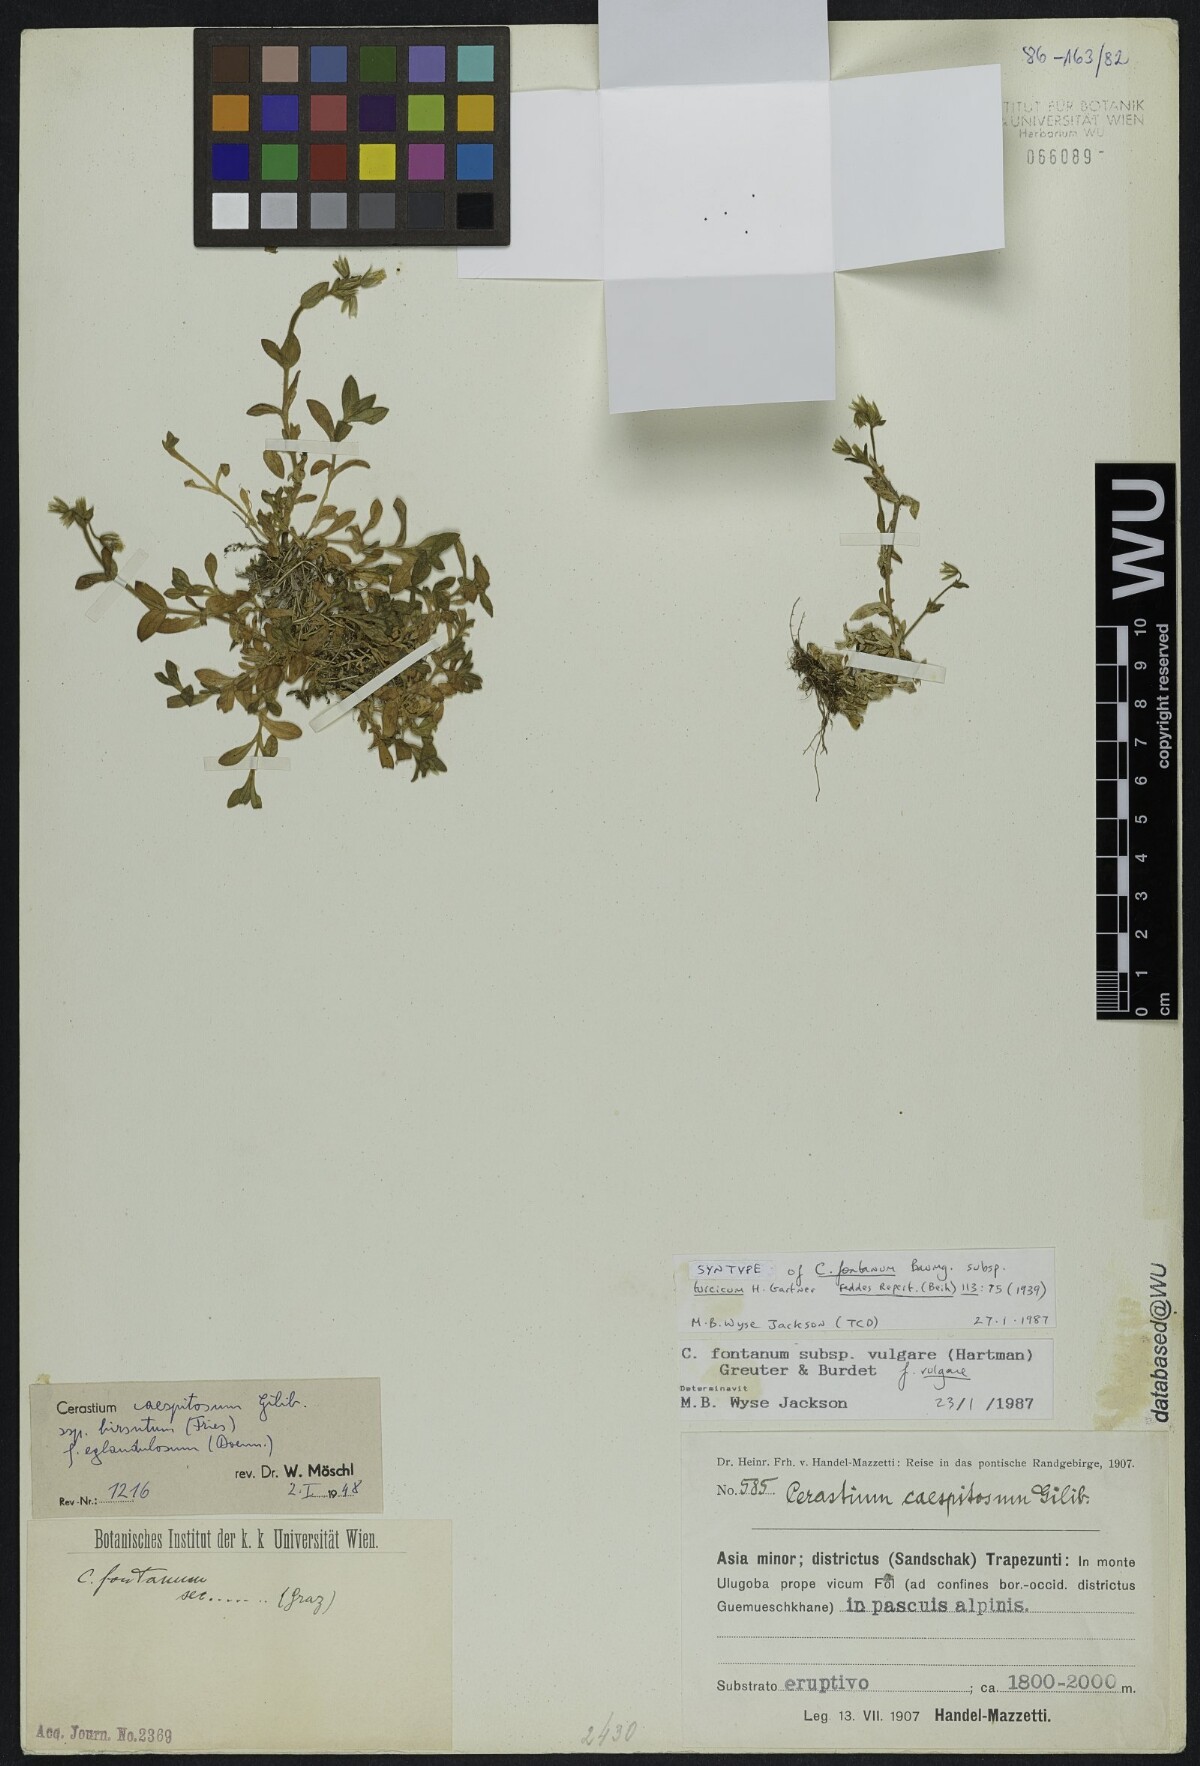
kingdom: Plantae
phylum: Tracheophyta
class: Magnoliopsida
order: Caryophyllales
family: Caryophyllaceae
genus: Cerastium
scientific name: Cerastium fontanum
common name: Common mouse-ear
